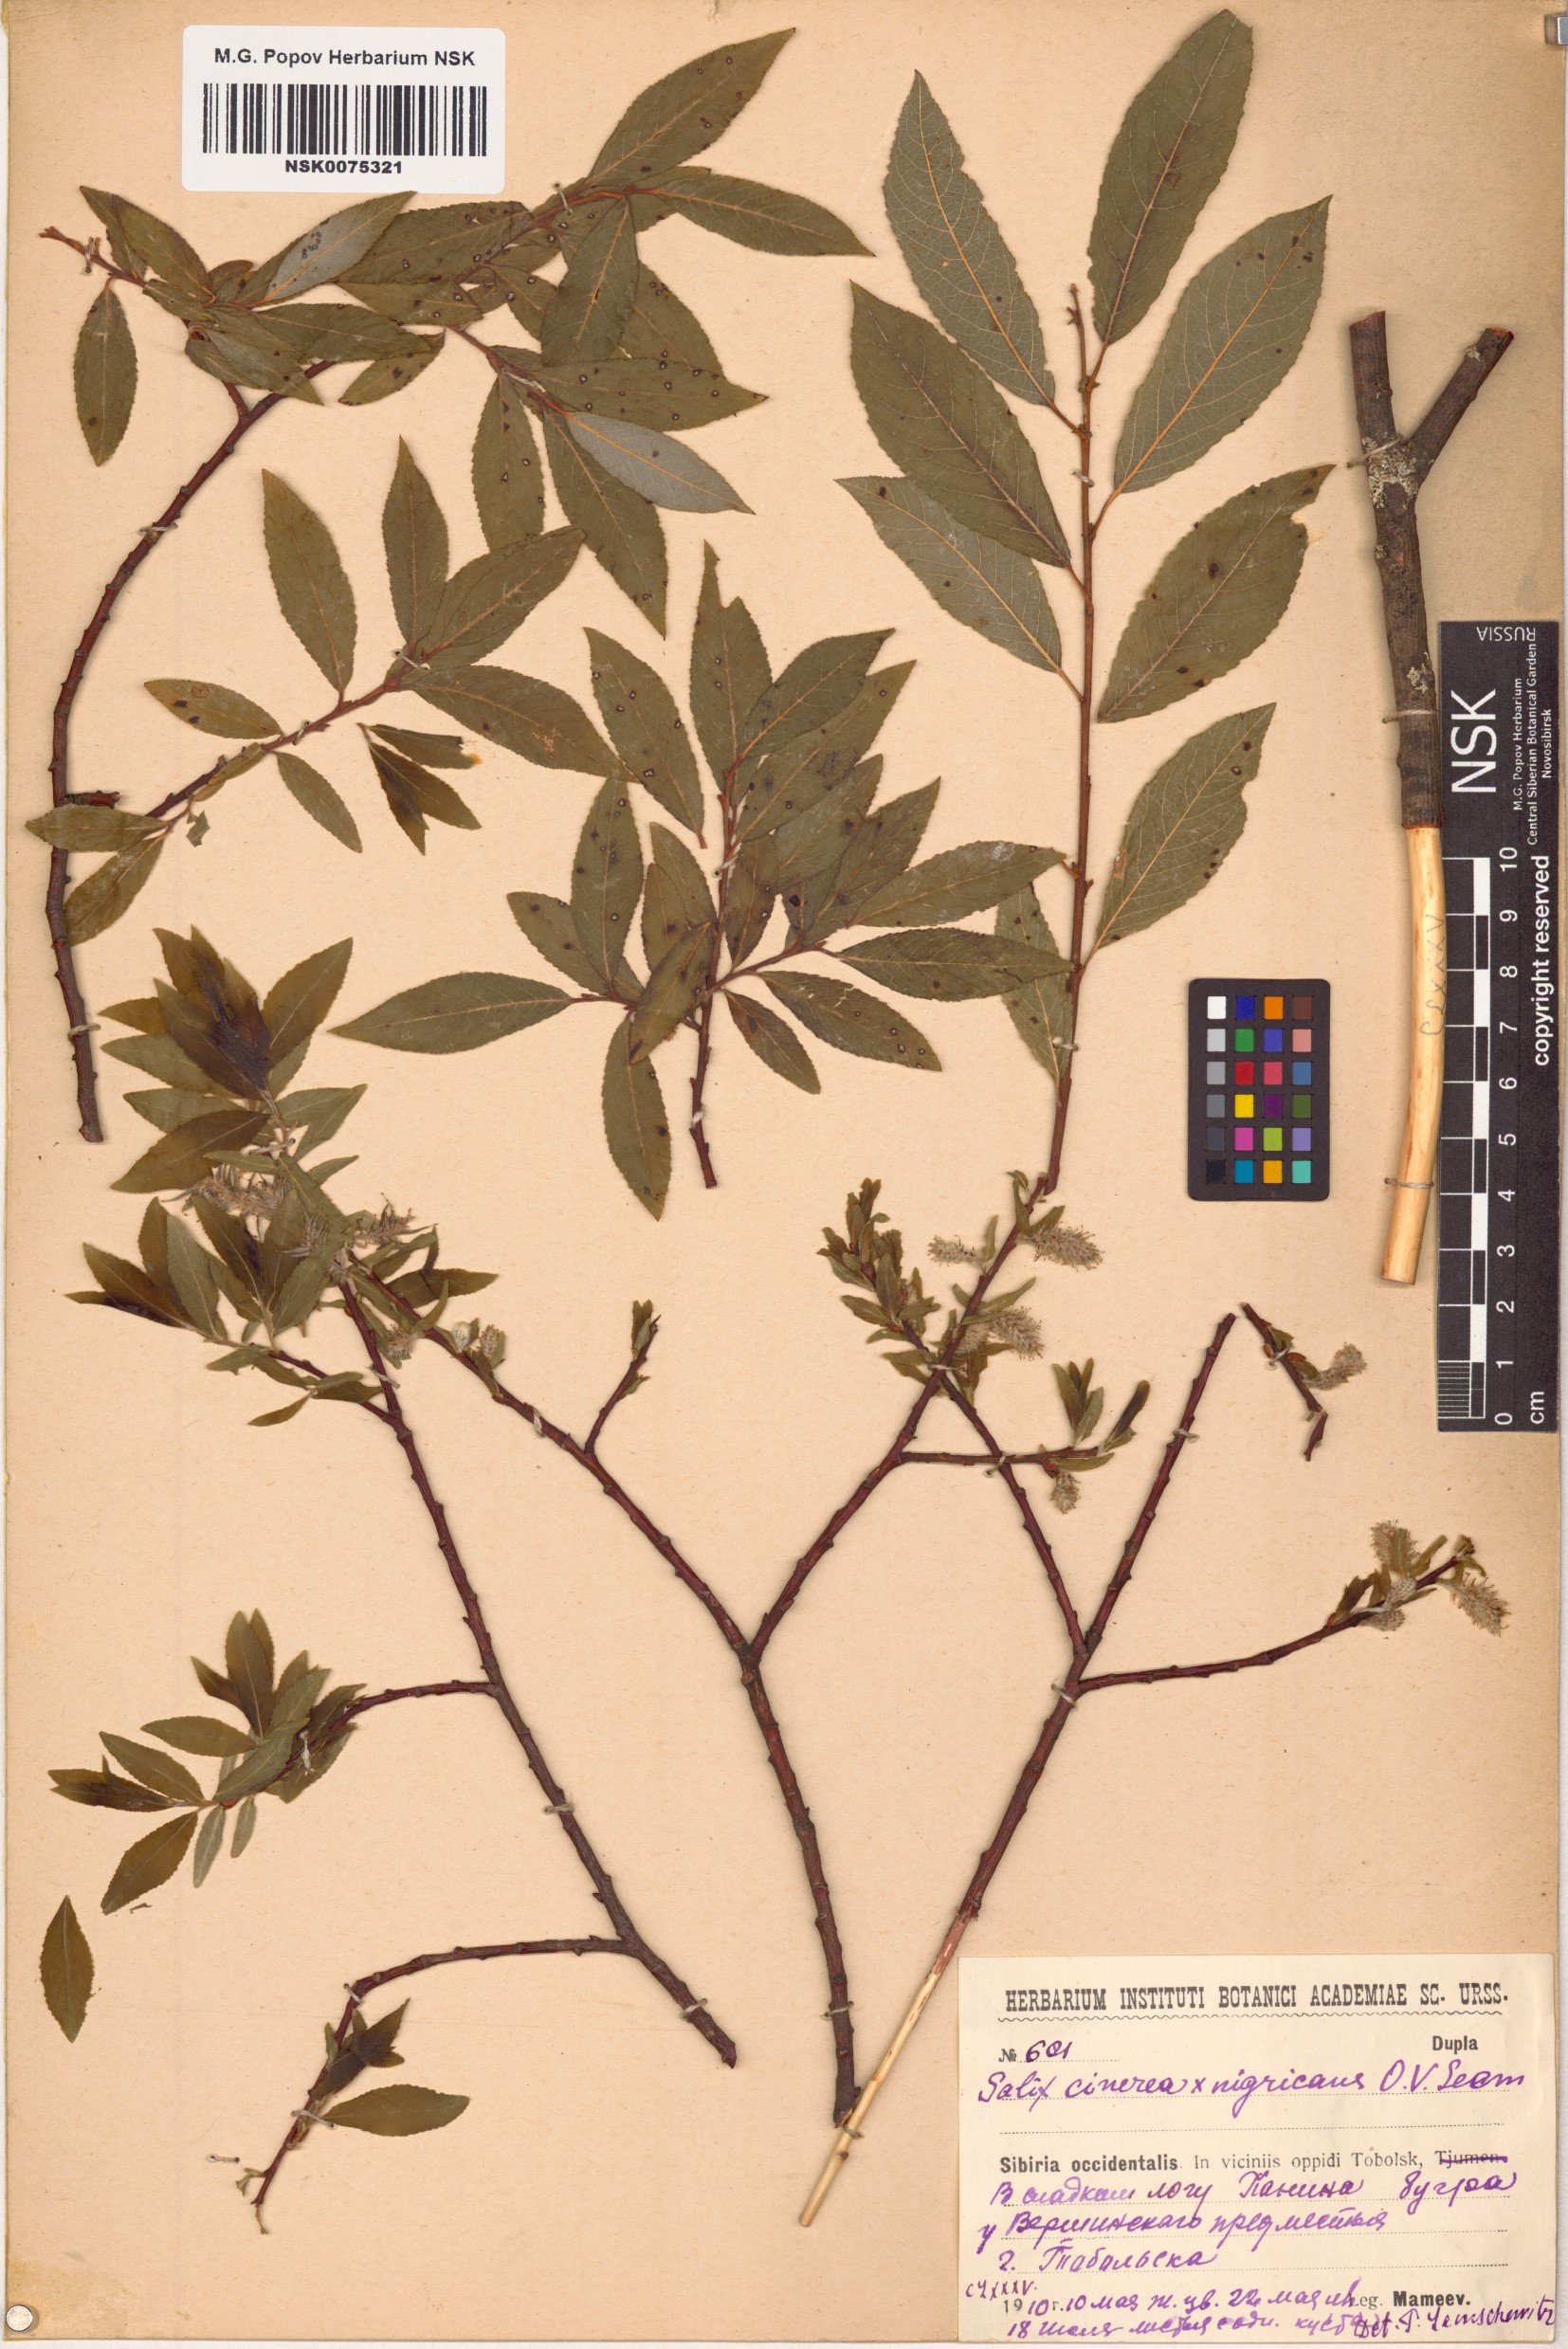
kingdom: Plantae
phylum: Tracheophyta
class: Magnoliopsida
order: Malpighiales
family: Salicaceae
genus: Salix
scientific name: Salix
